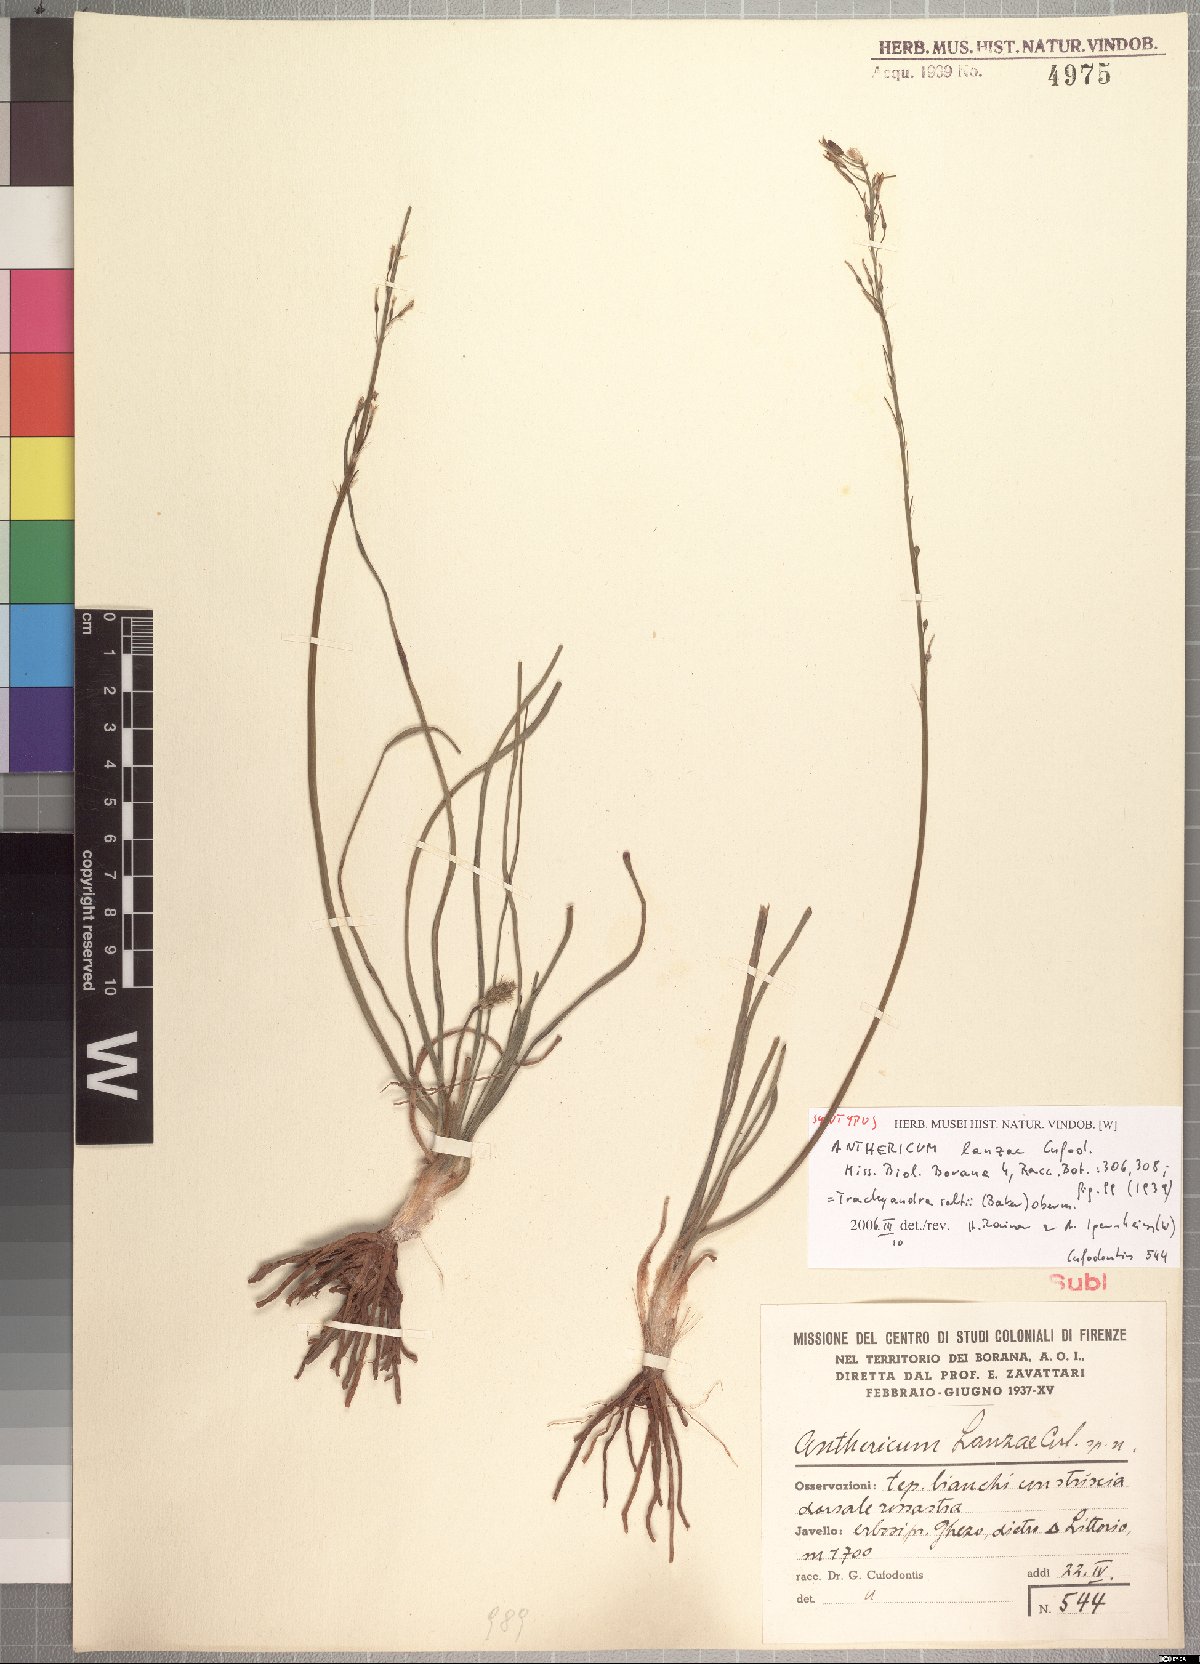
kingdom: Plantae
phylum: Tracheophyta
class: Liliopsida
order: Asparagales
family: Asphodelaceae
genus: Trachyandra
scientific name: Trachyandra saltii
